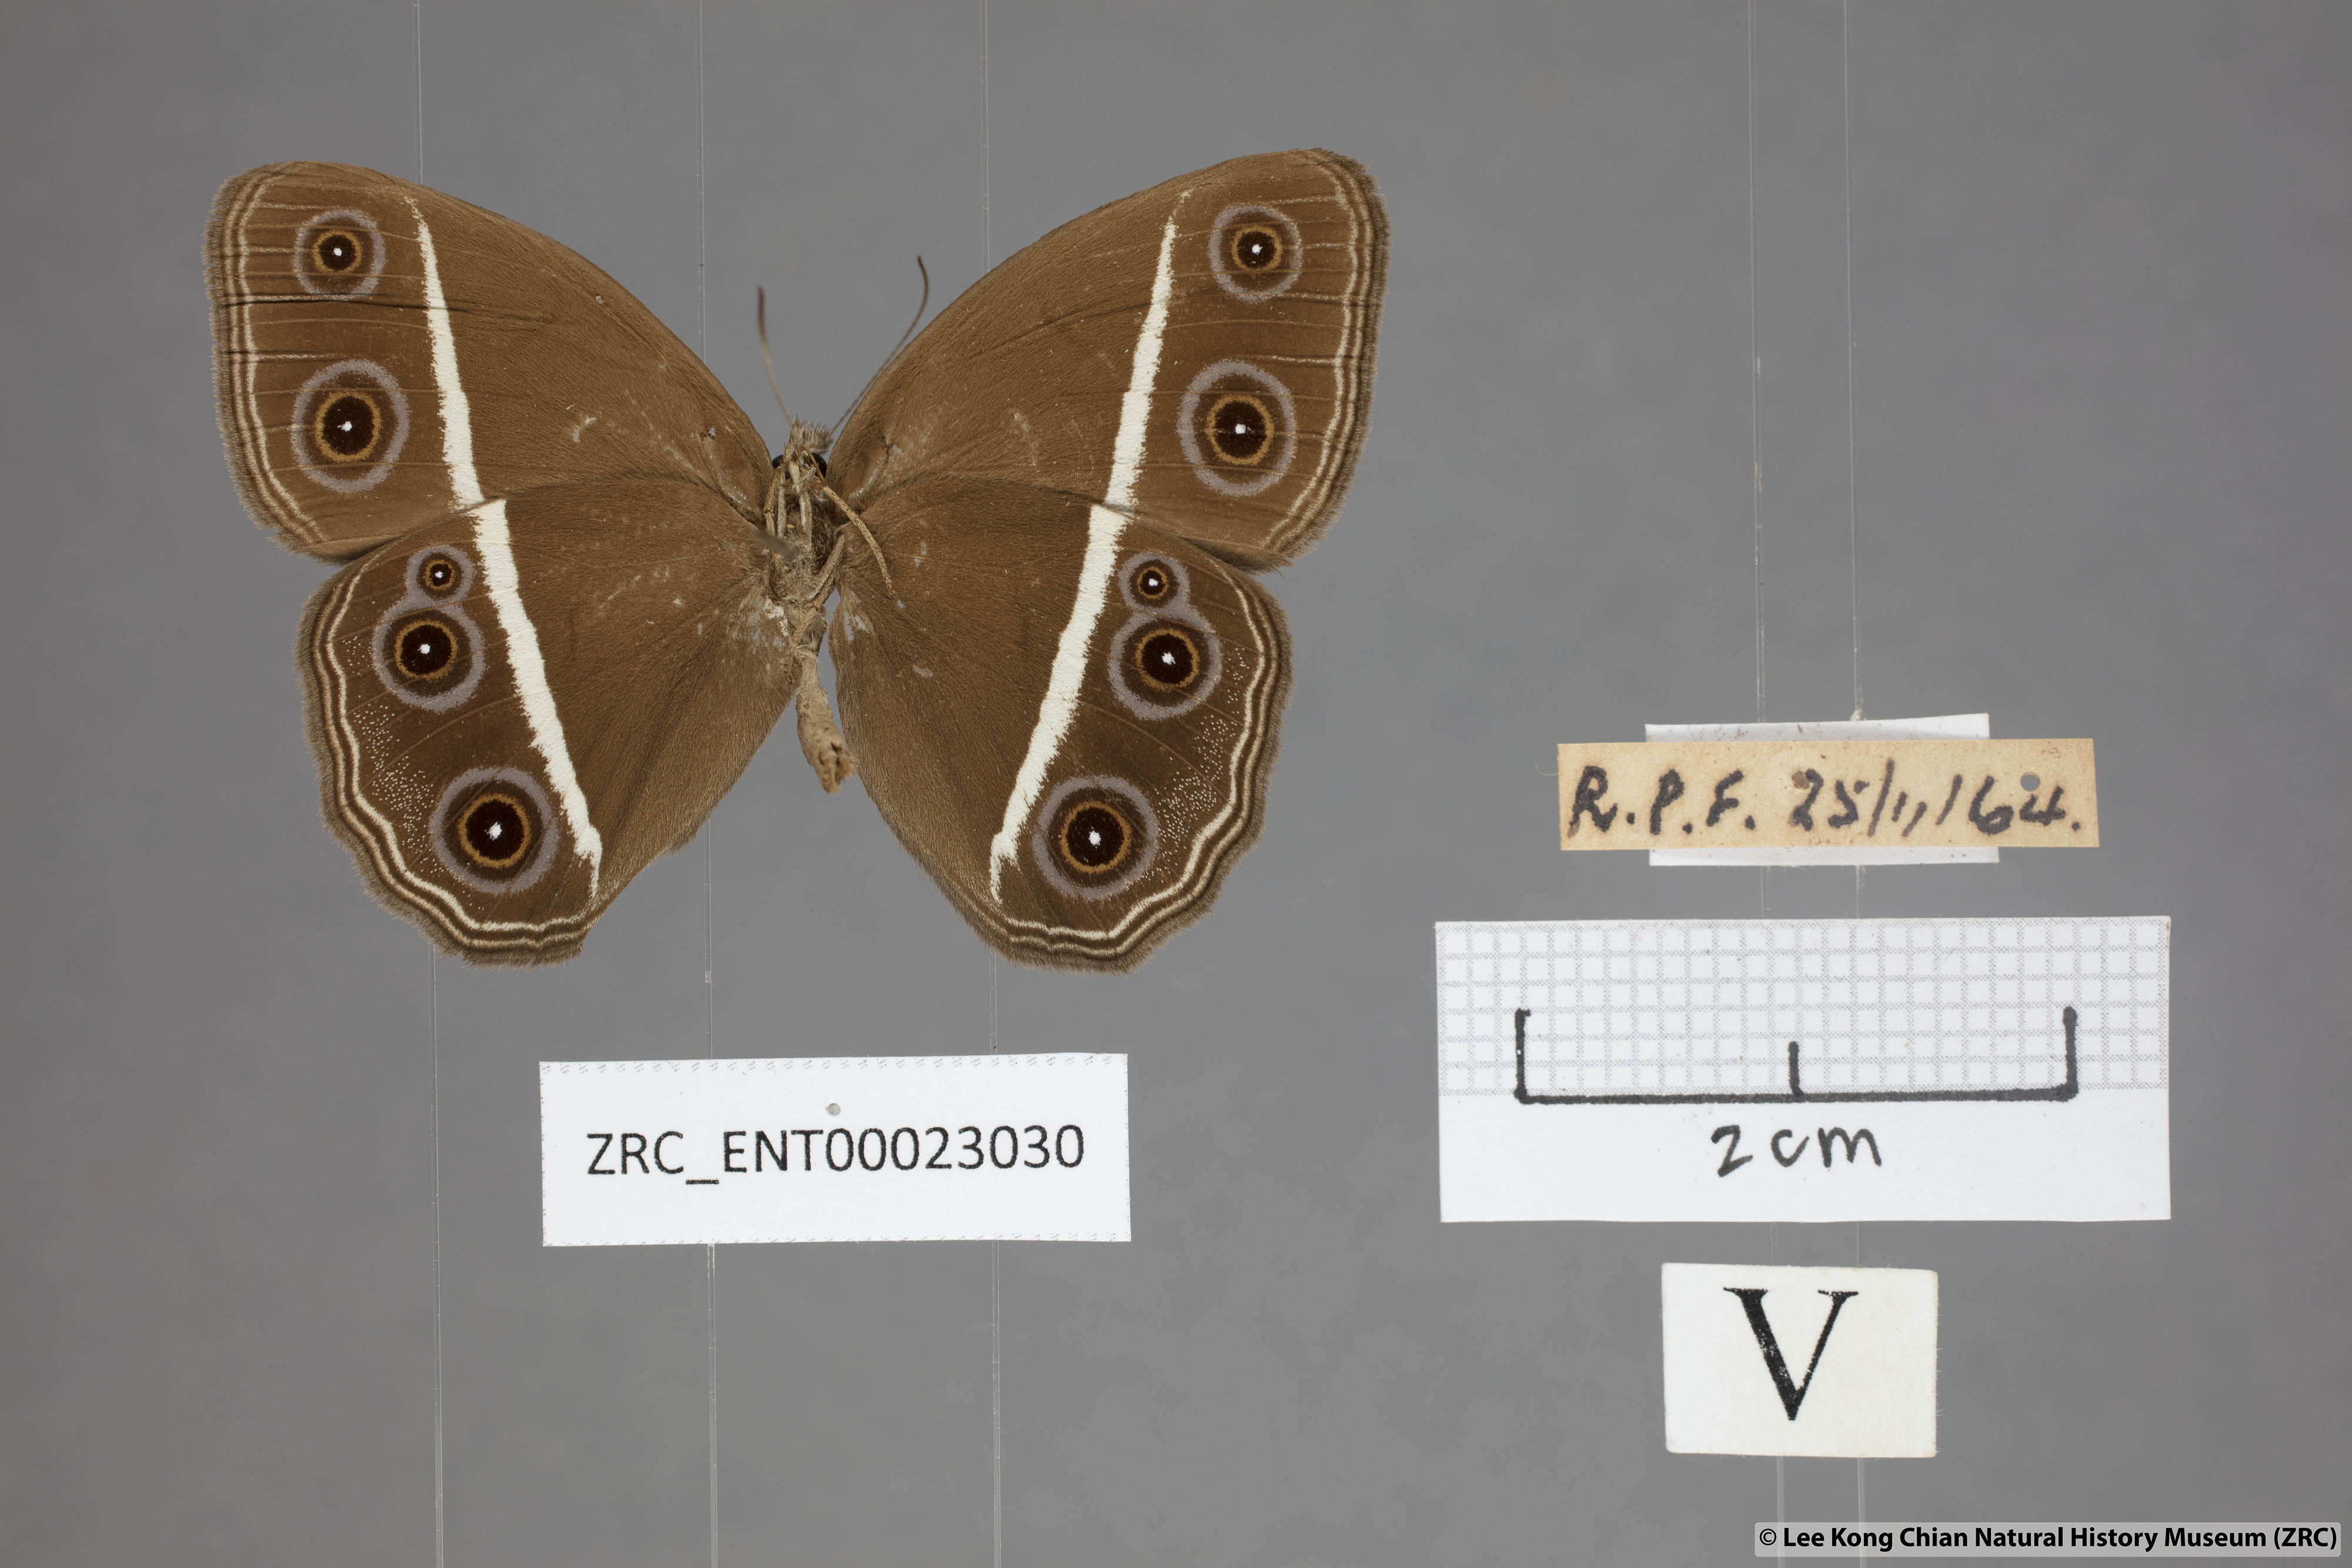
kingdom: Animalia
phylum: Arthropoda
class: Insecta
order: Lepidoptera
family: Nymphalidae
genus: Orsotriaena
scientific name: Orsotriaena medus
